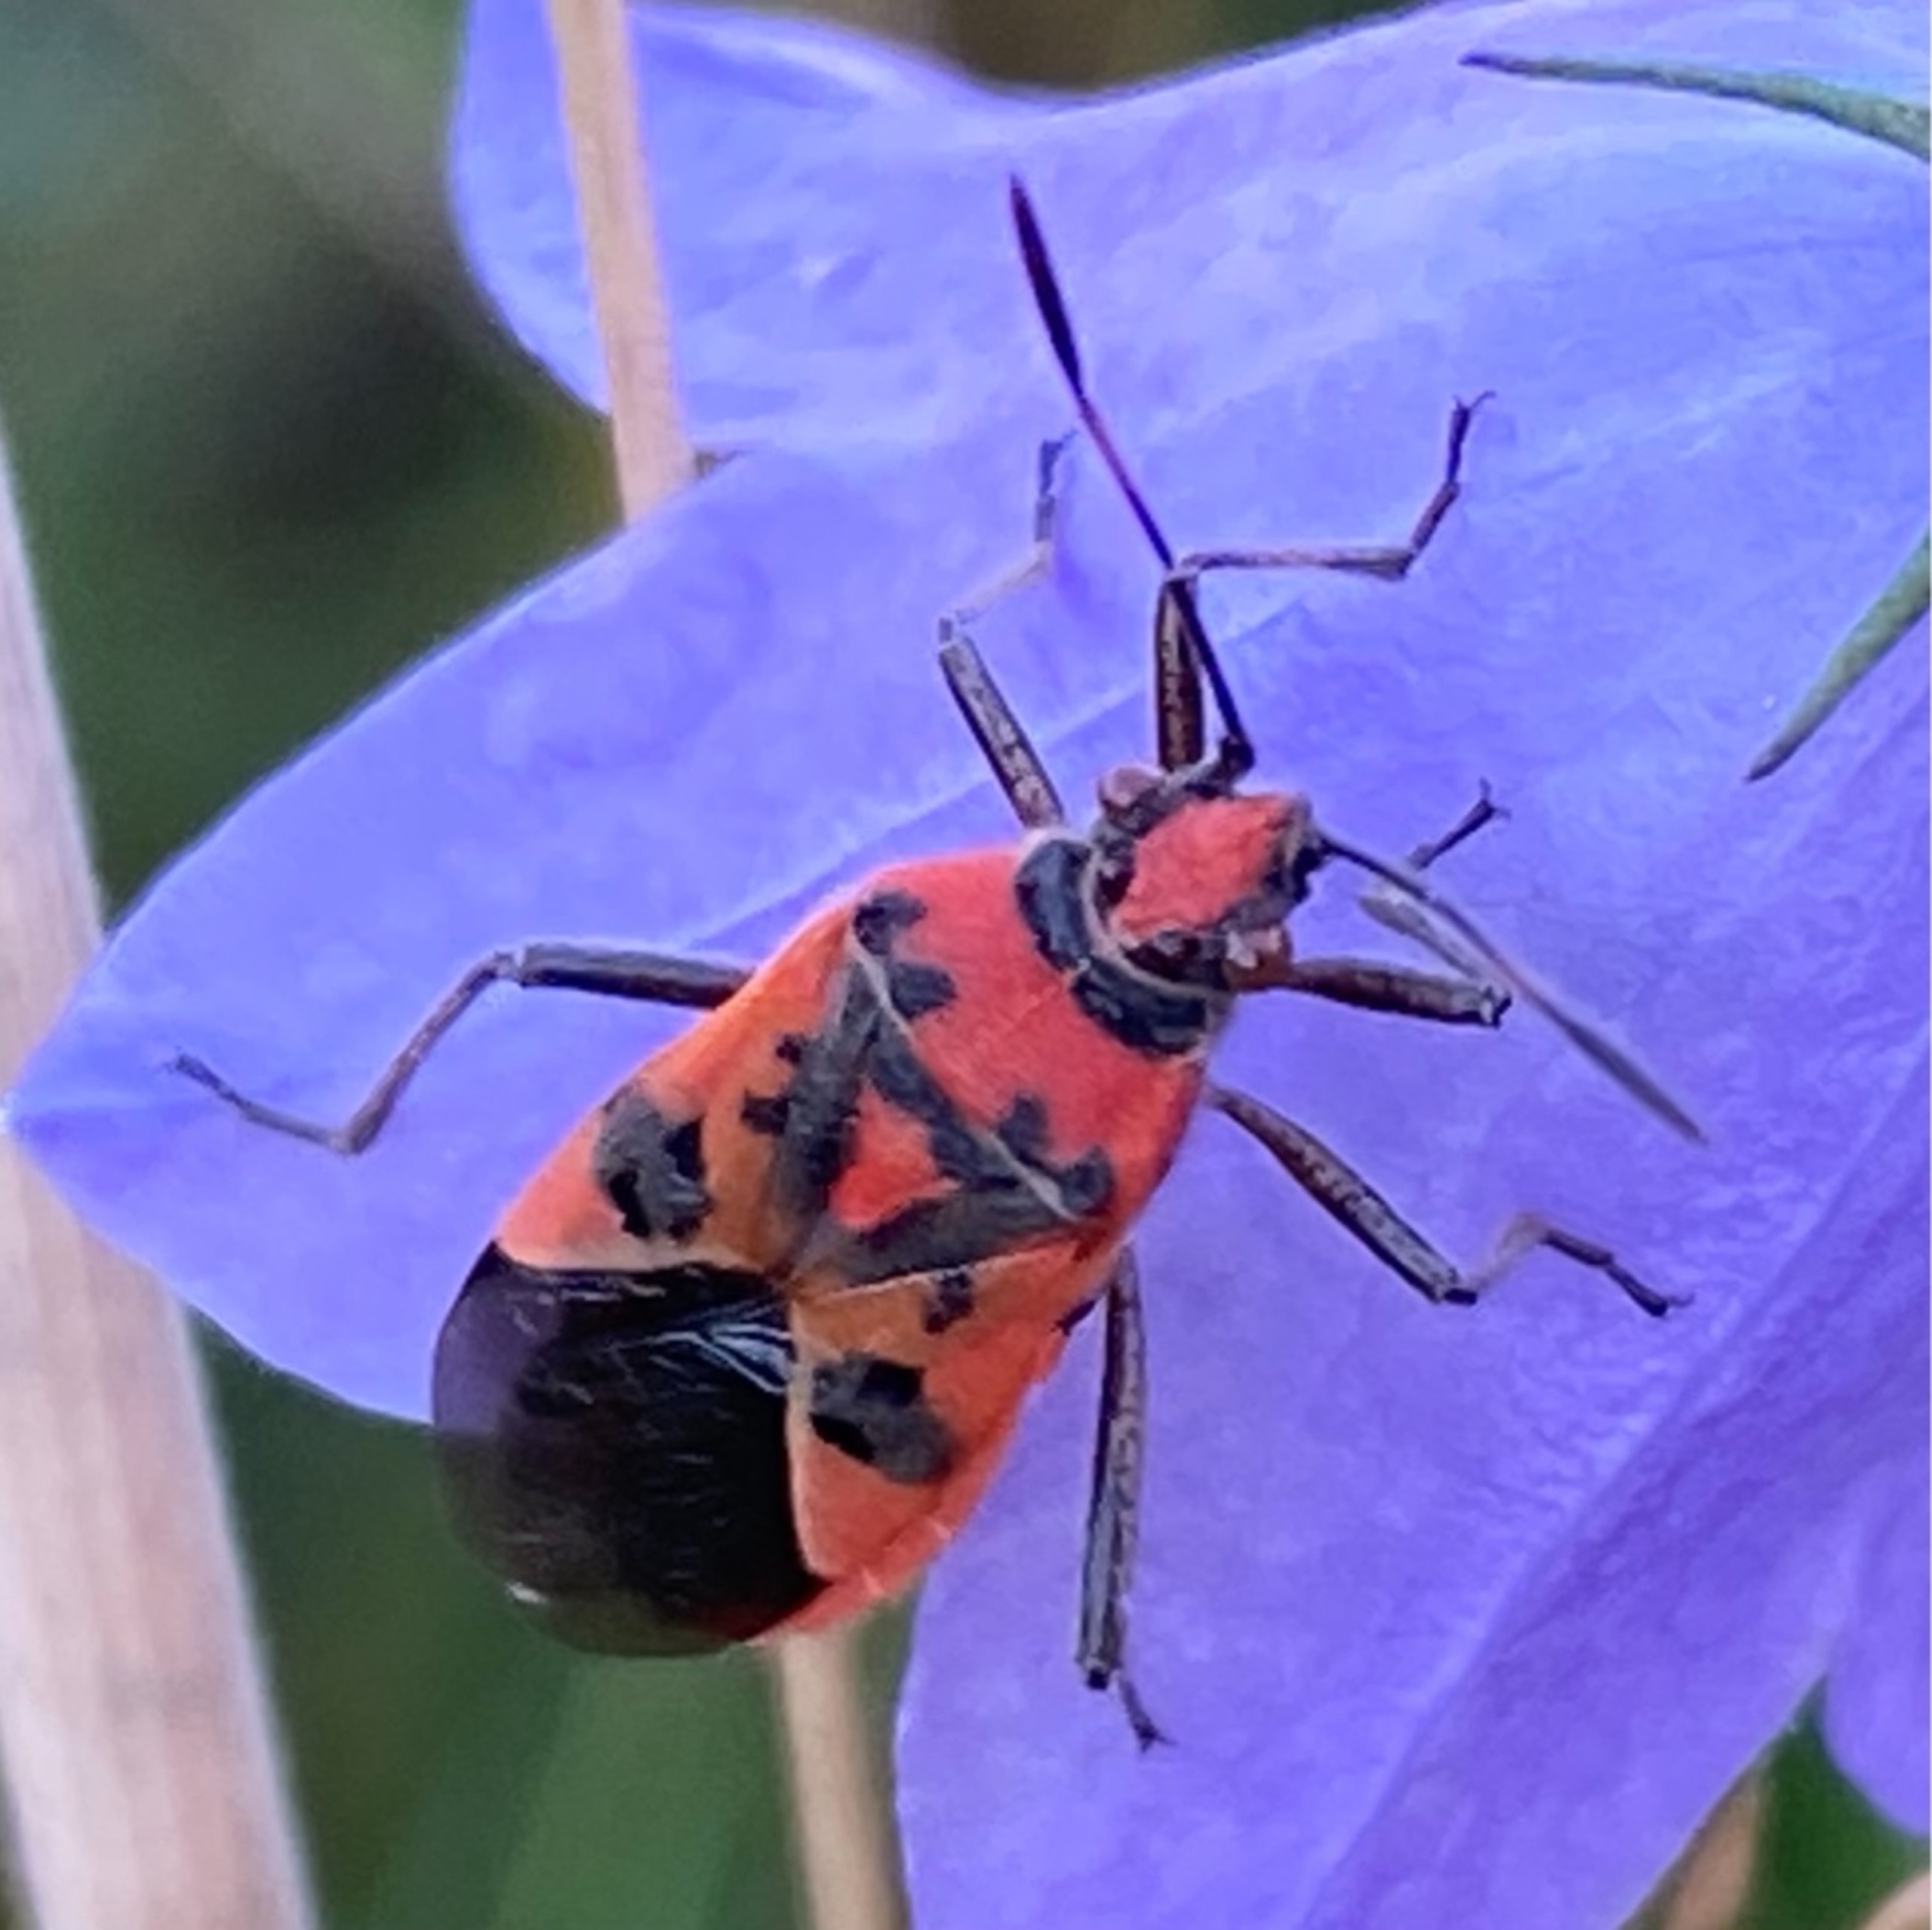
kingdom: Animalia
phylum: Arthropoda
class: Insecta
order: Hemiptera
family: Rhopalidae
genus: Corizus
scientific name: Corizus hyoscyami
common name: Rød kanttæge
